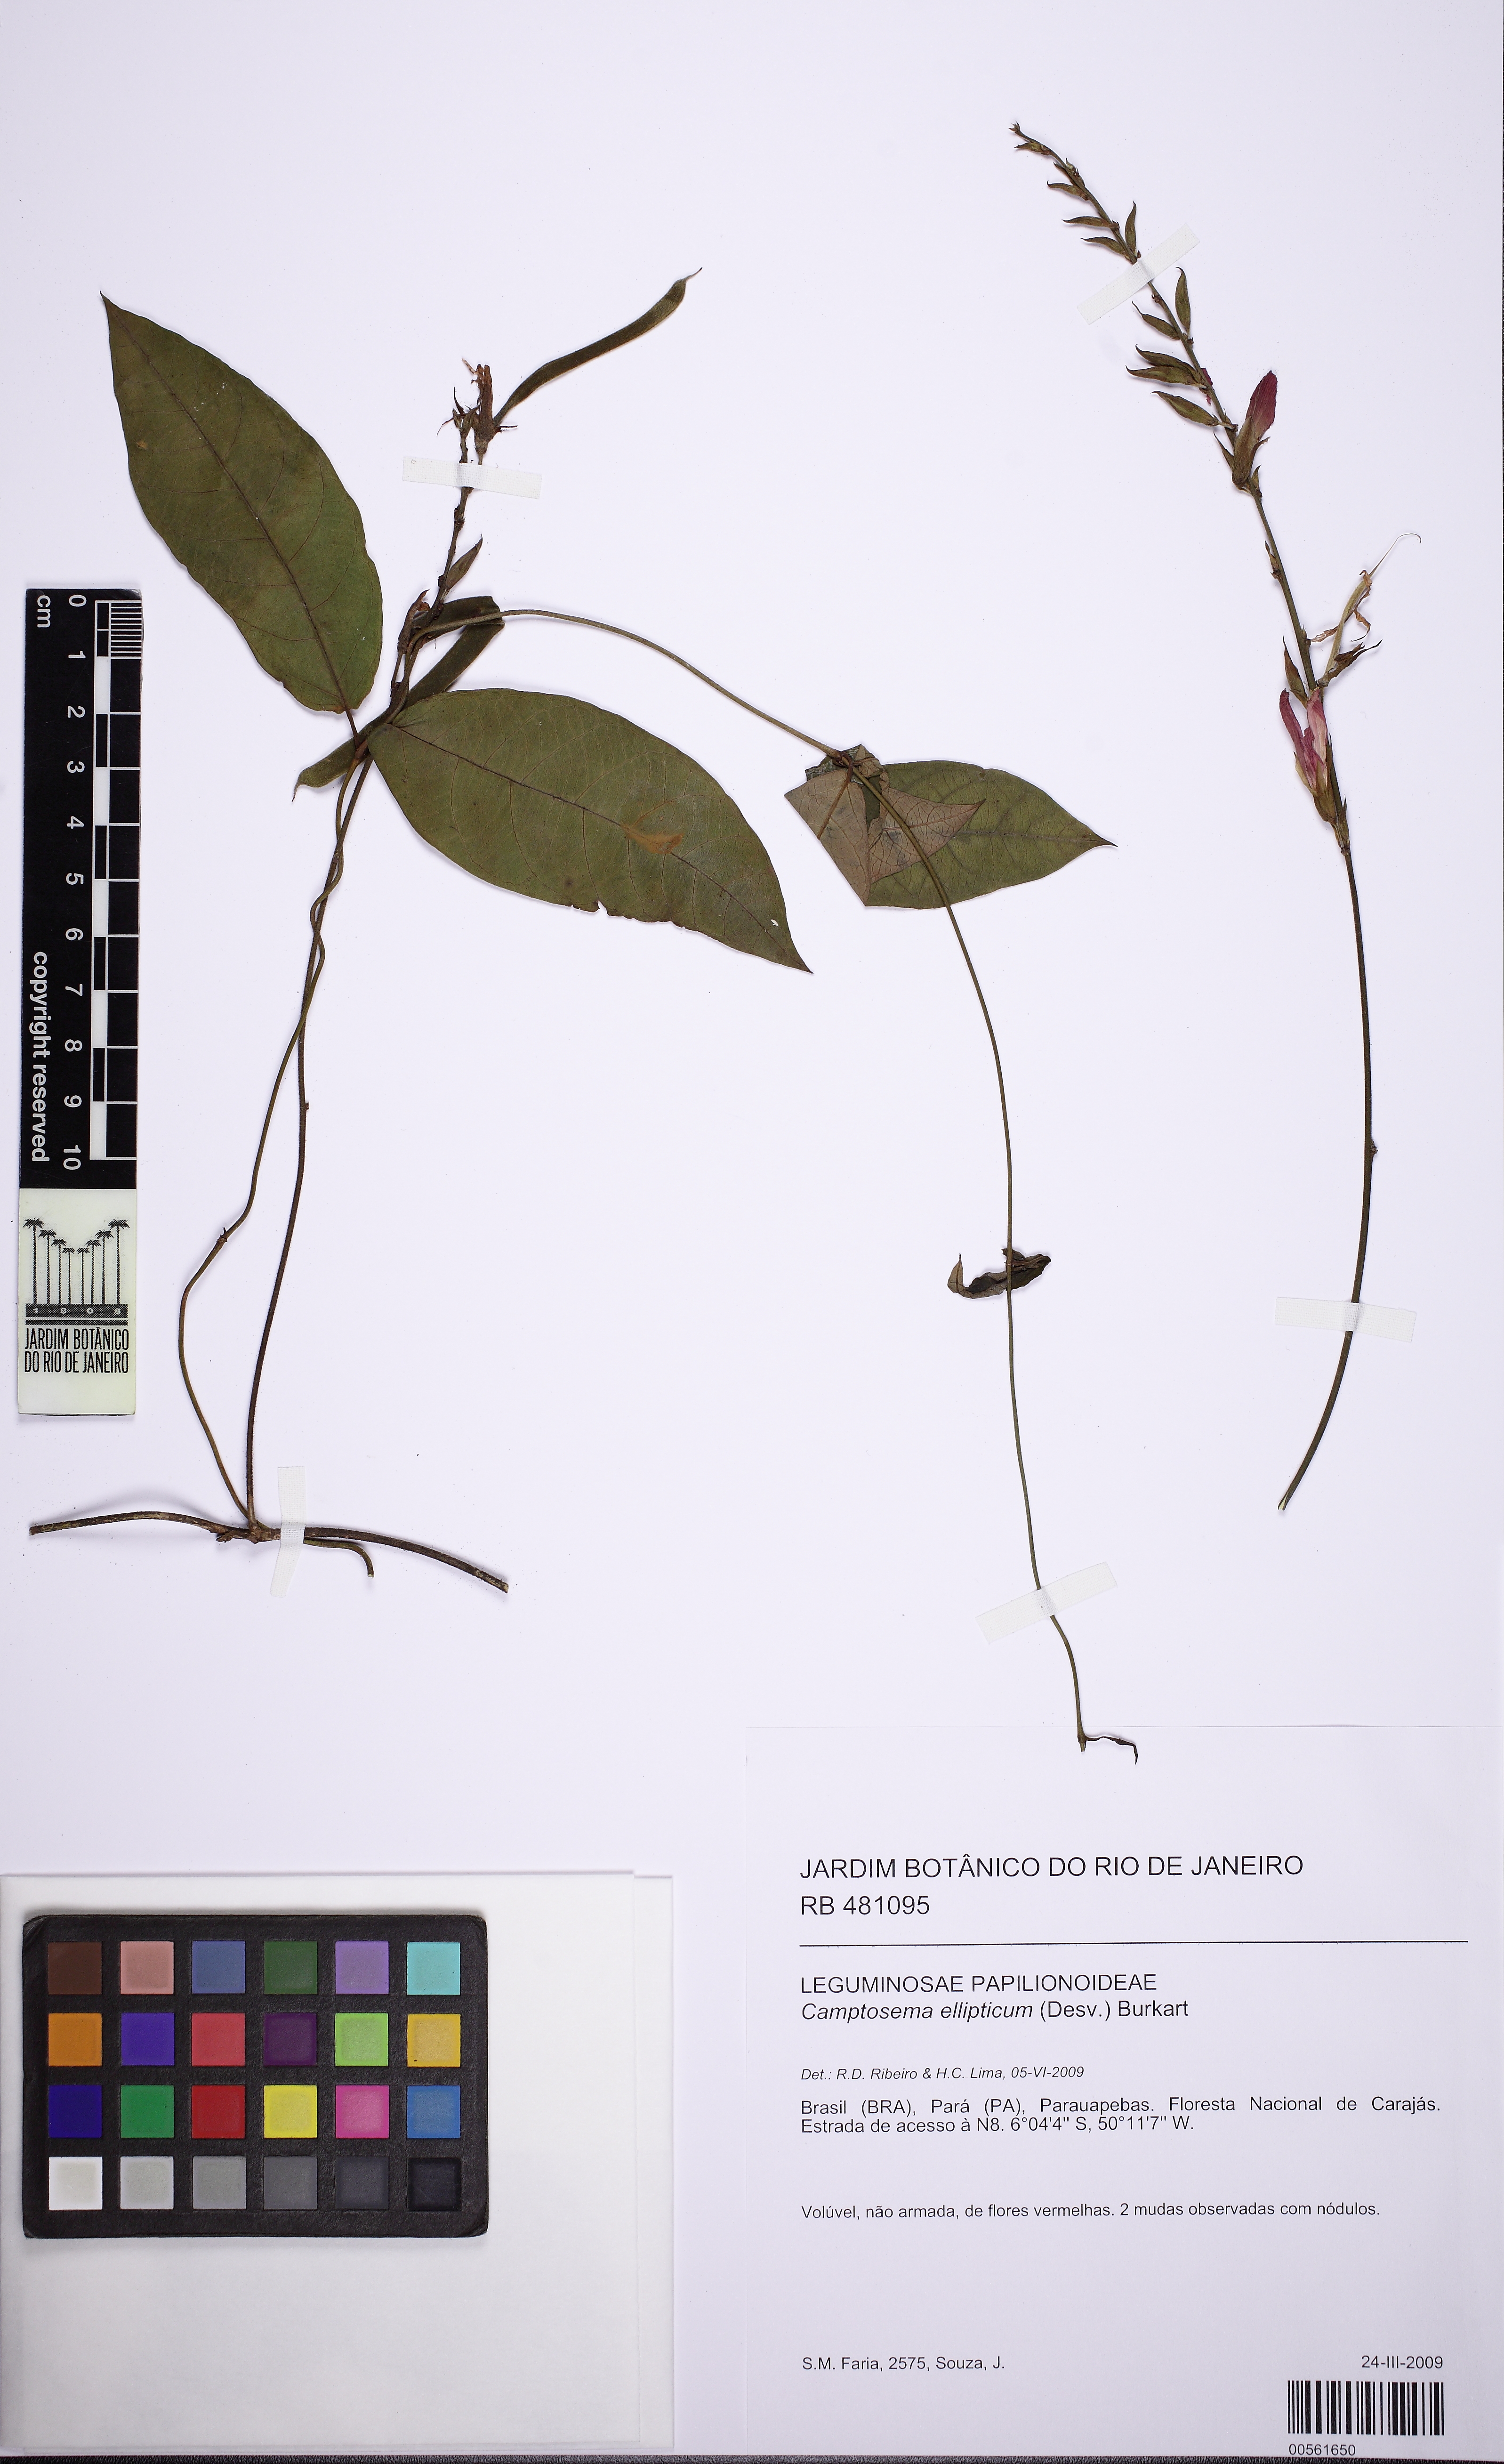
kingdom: Plantae
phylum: Tracheophyta
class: Magnoliopsida
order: Fabales
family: Fabaceae
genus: Cerradicola
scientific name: Cerradicola elliptica
